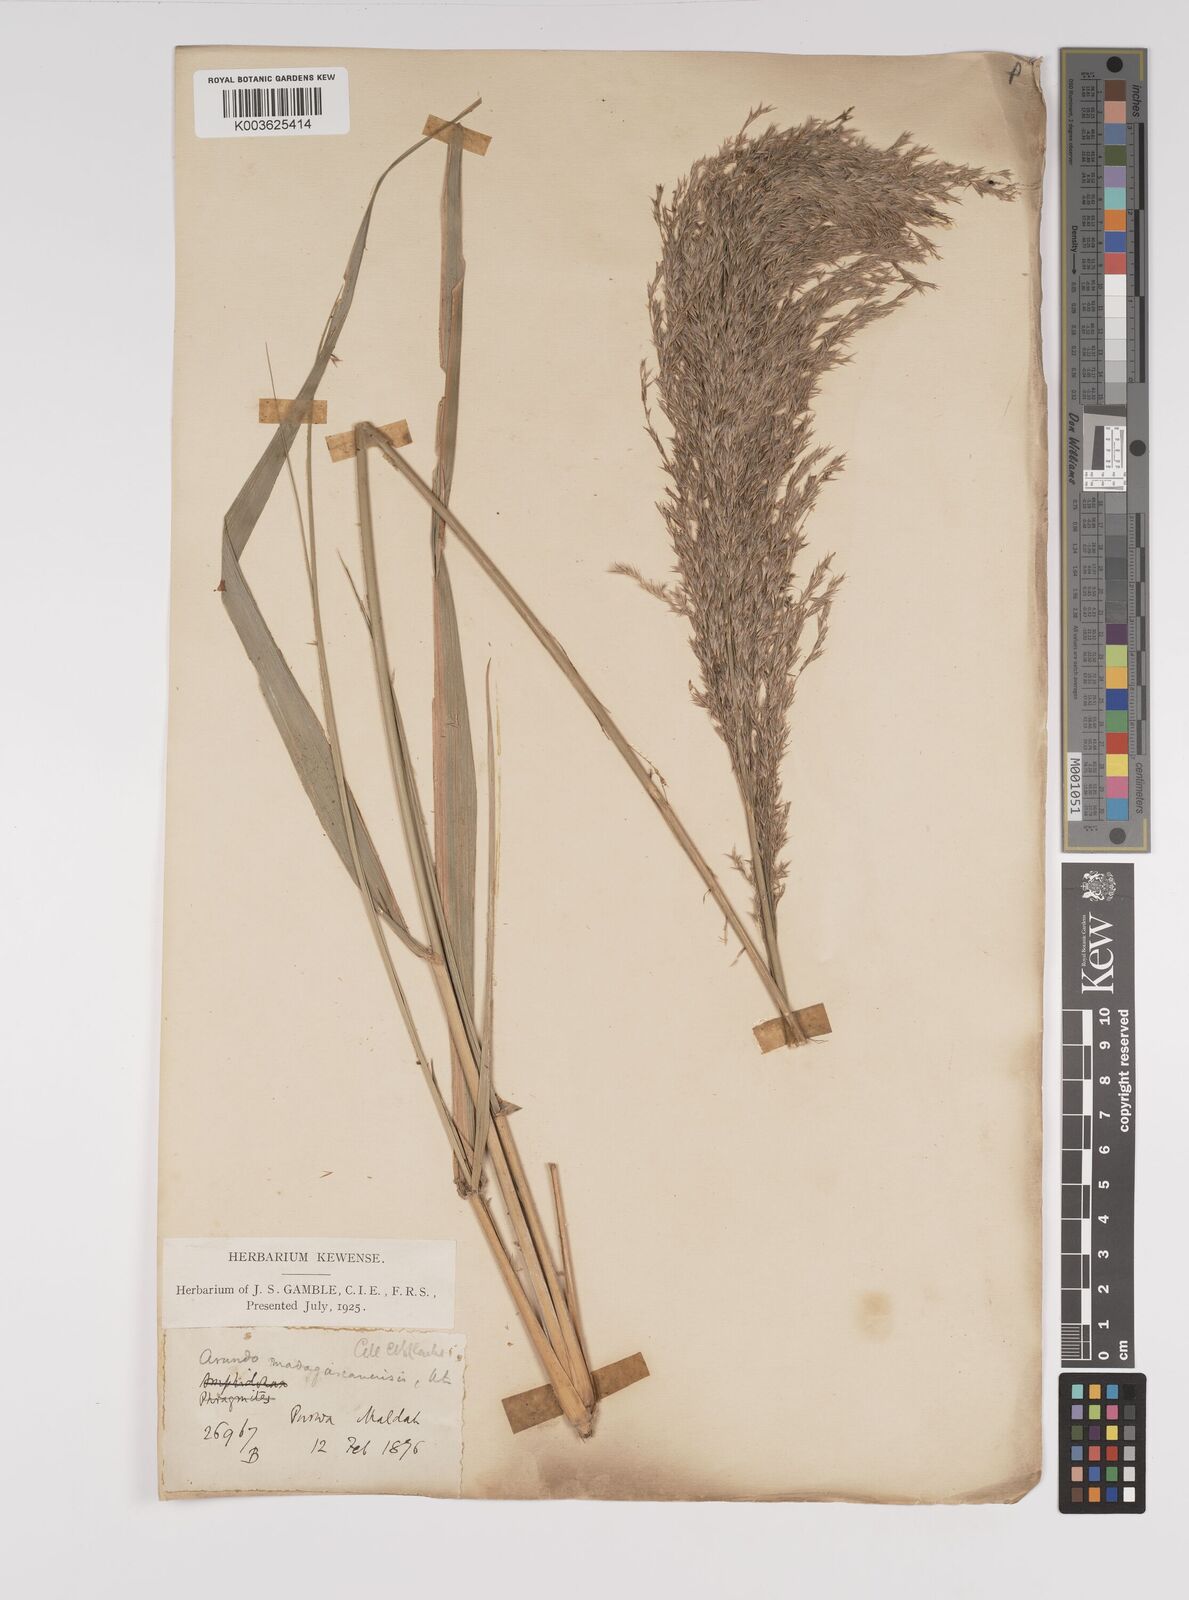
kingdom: Plantae
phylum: Tracheophyta
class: Liliopsida
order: Poales
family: Poaceae
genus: Neyraudia
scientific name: Neyraudia reynaudiana
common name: Silkreed
